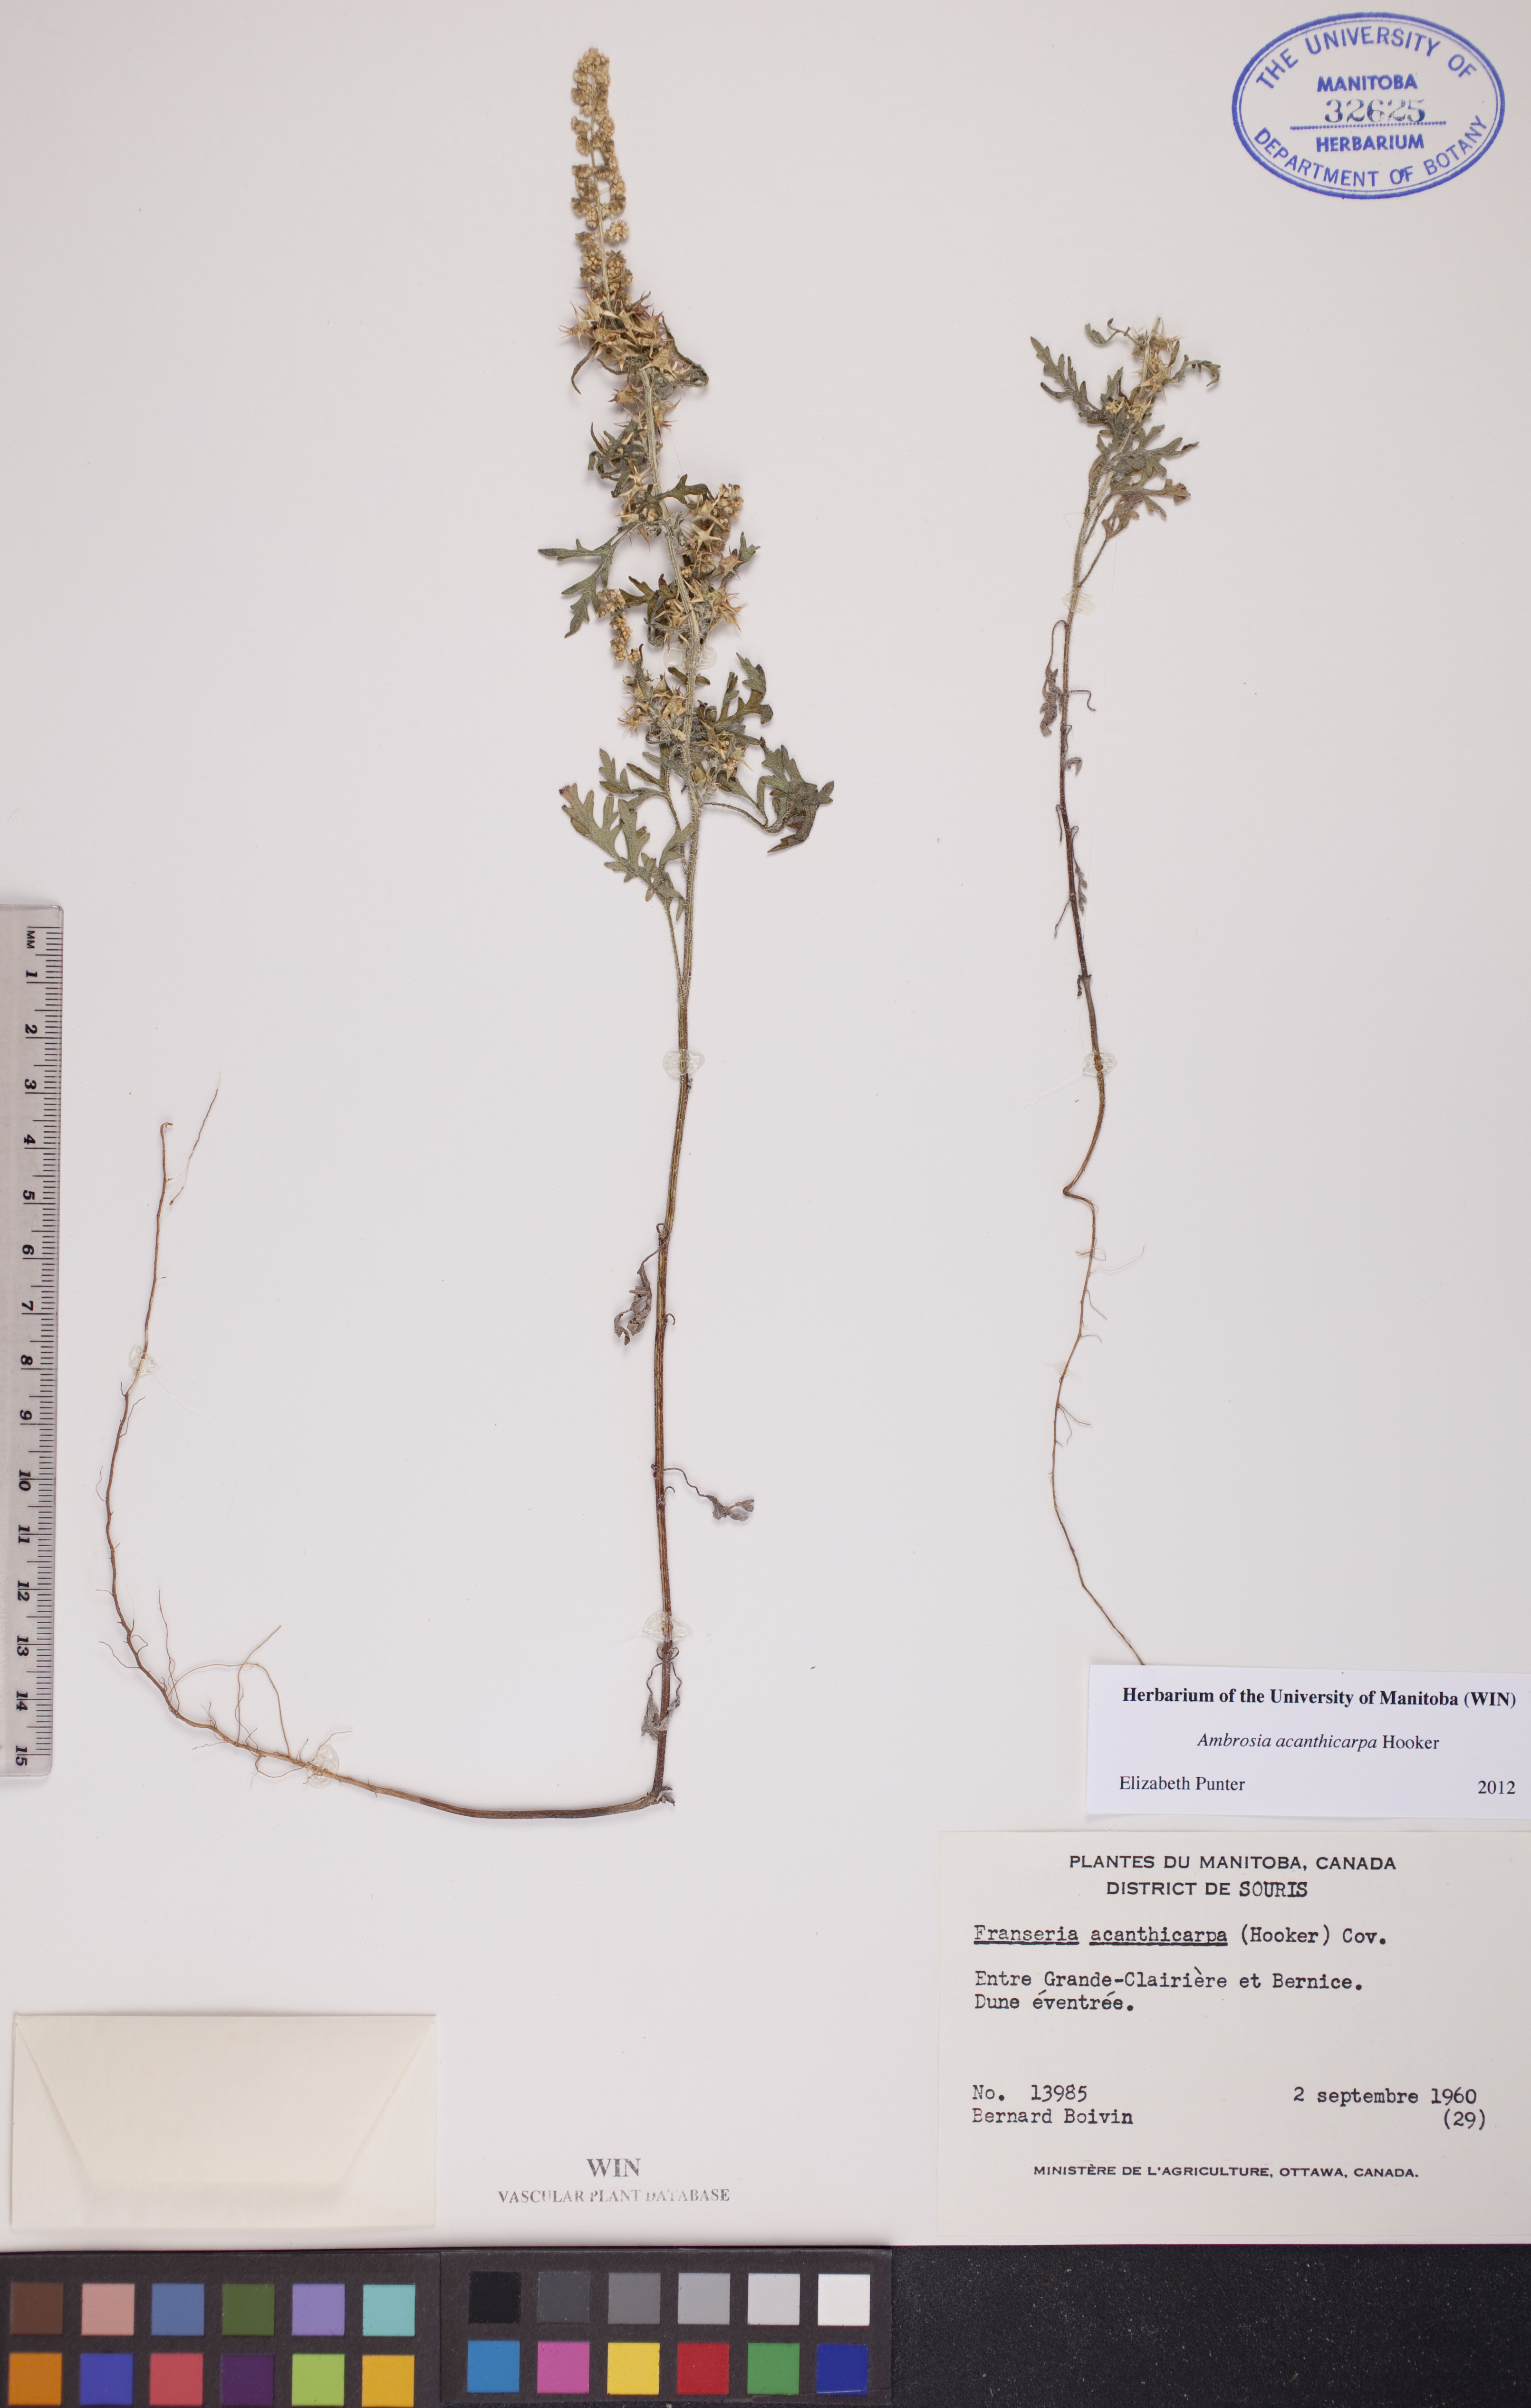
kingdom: Plantae
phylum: Tracheophyta
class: Magnoliopsida
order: Asterales
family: Asteraceae
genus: Ambrosia
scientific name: Ambrosia acanthicarpa
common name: Hooker's bur ragweed
